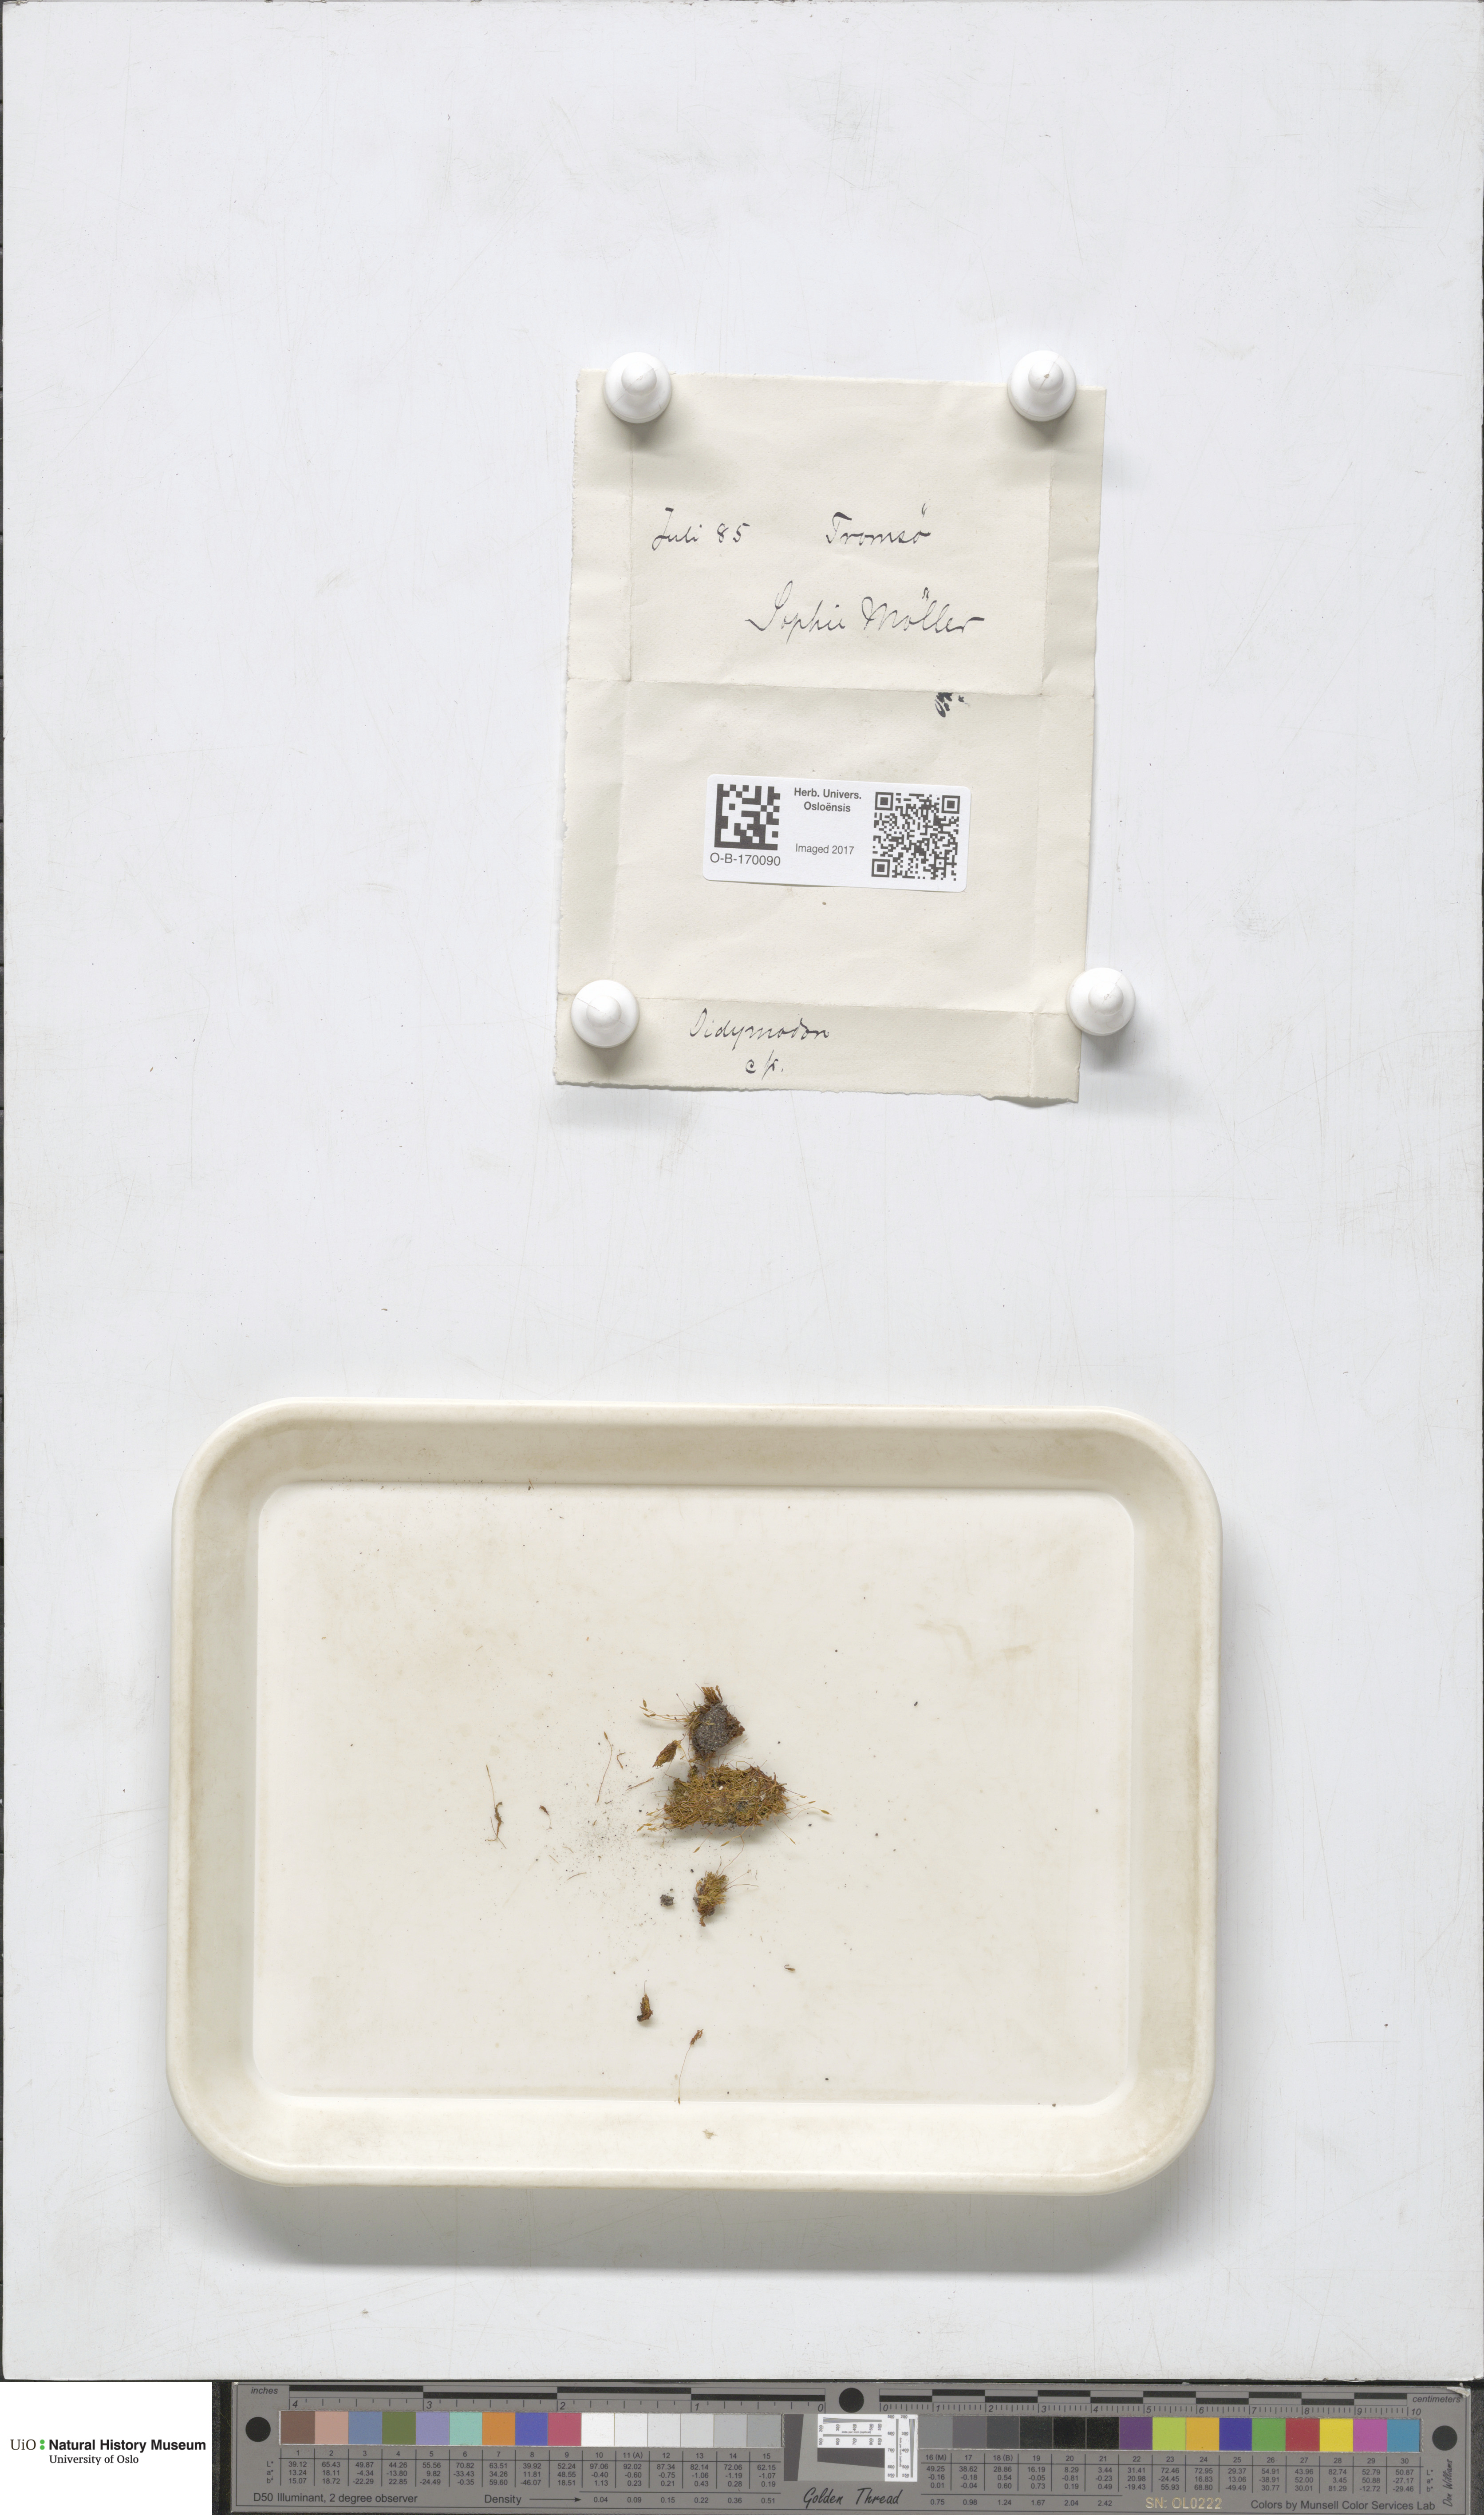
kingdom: Plantae
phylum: Bryophyta
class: Bryopsida
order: Pottiales
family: Pottiaceae
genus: Didymodon
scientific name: Didymodon
